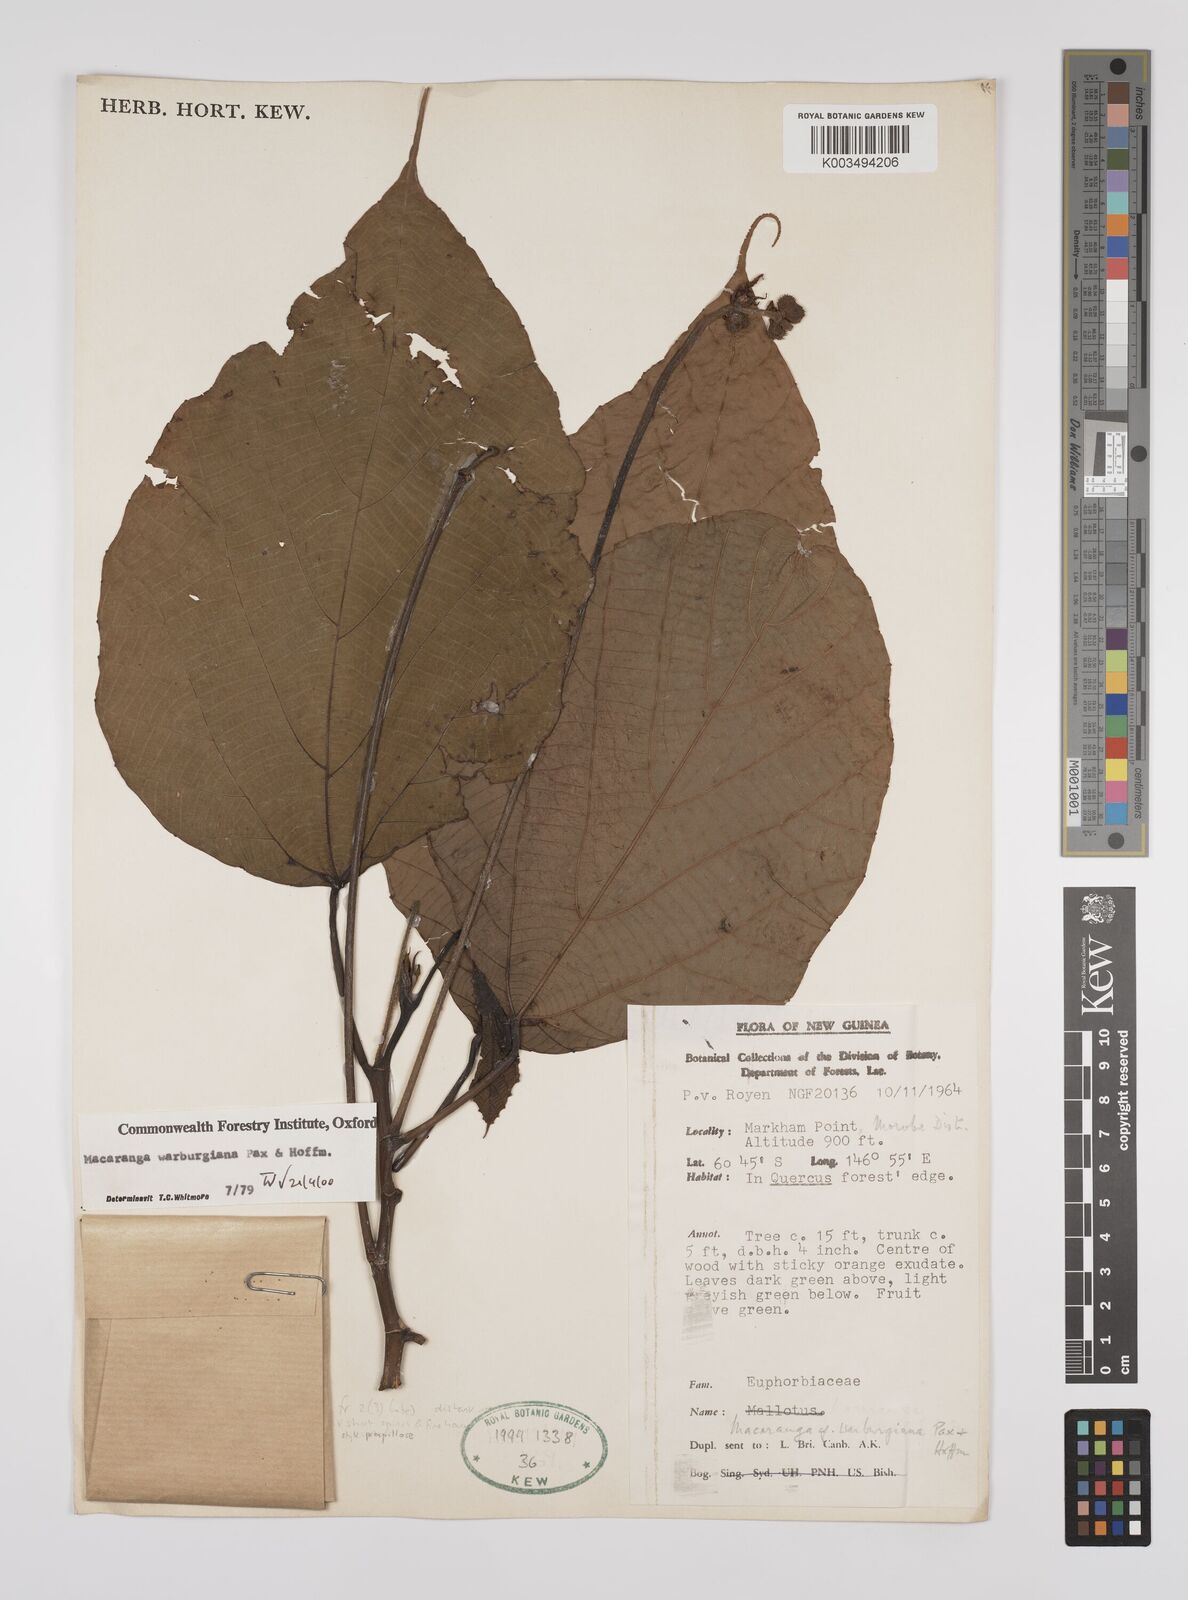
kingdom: Plantae
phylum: Tracheophyta
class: Magnoliopsida
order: Malpighiales
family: Euphorbiaceae
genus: Macaranga
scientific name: Macaranga warburgiana
